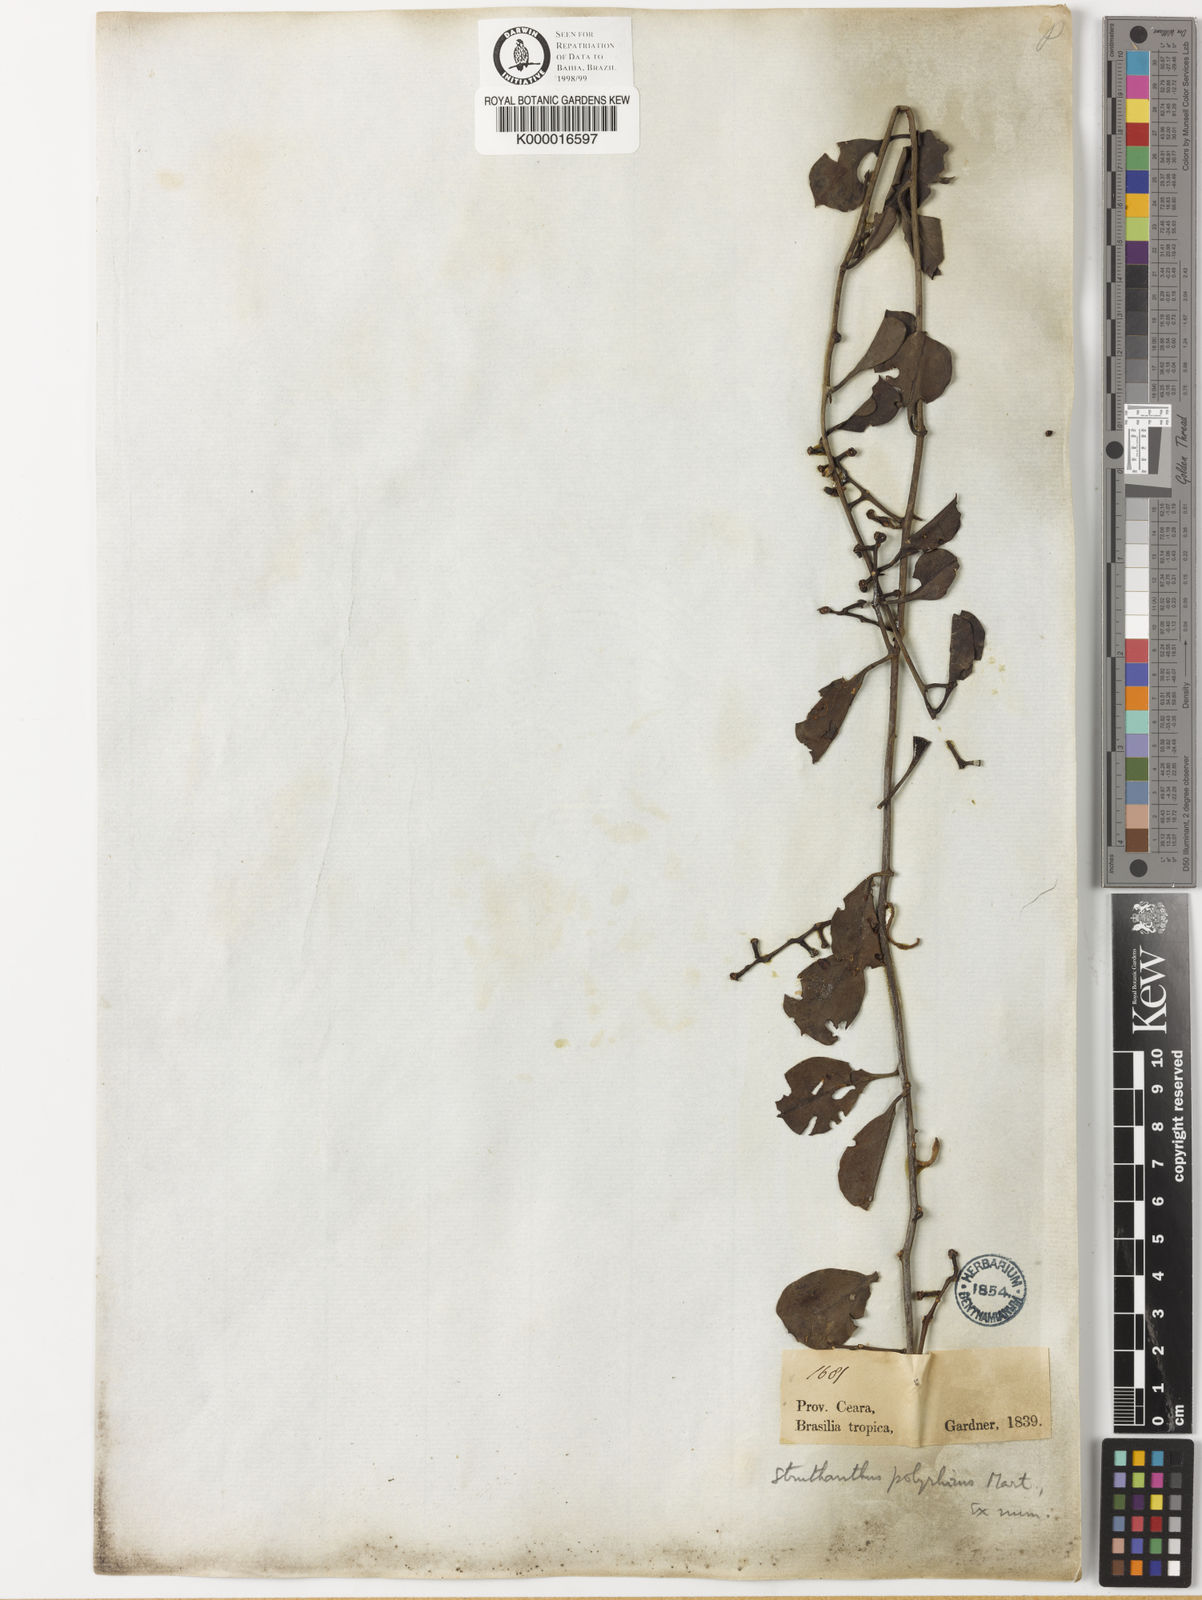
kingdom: Plantae
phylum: Tracheophyta
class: Magnoliopsida
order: Santalales
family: Loranthaceae
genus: Struthanthus
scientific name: Struthanthus retusus
